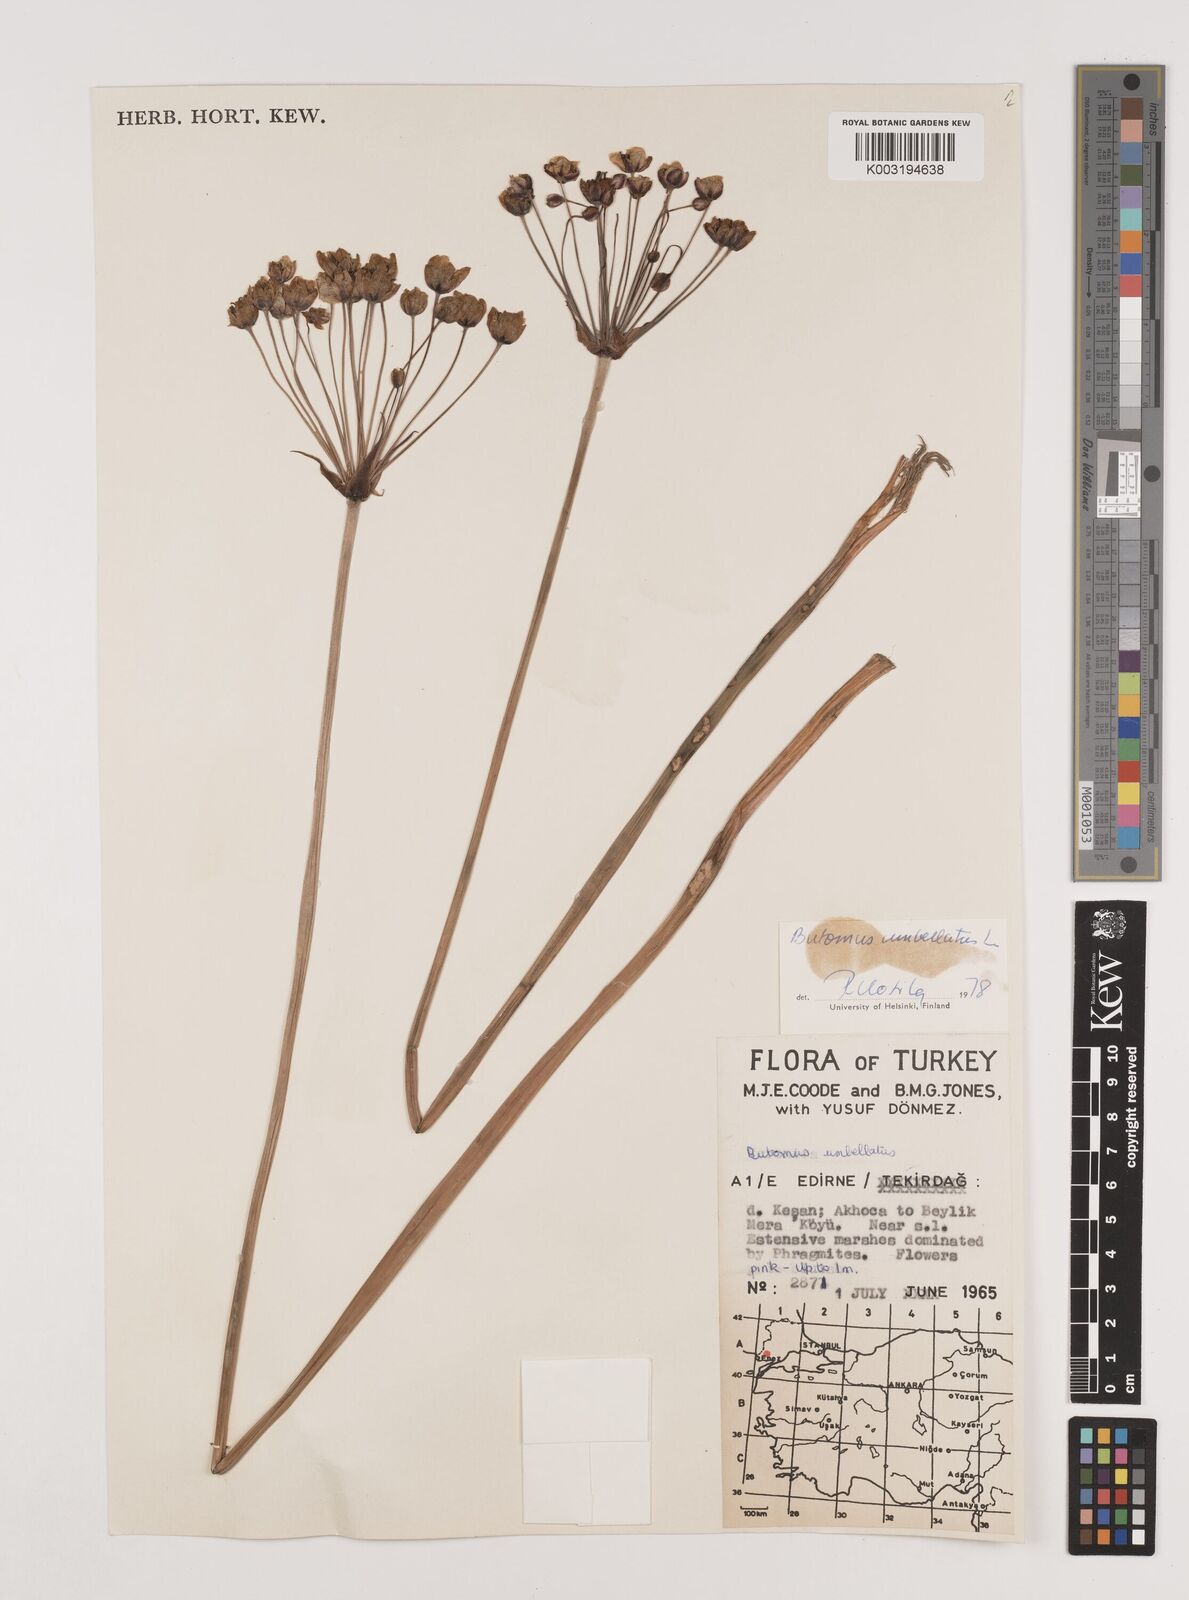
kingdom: Plantae
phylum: Tracheophyta
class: Liliopsida
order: Alismatales
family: Butomaceae
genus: Butomus
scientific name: Butomus umbellatus
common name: Flowering-rush
